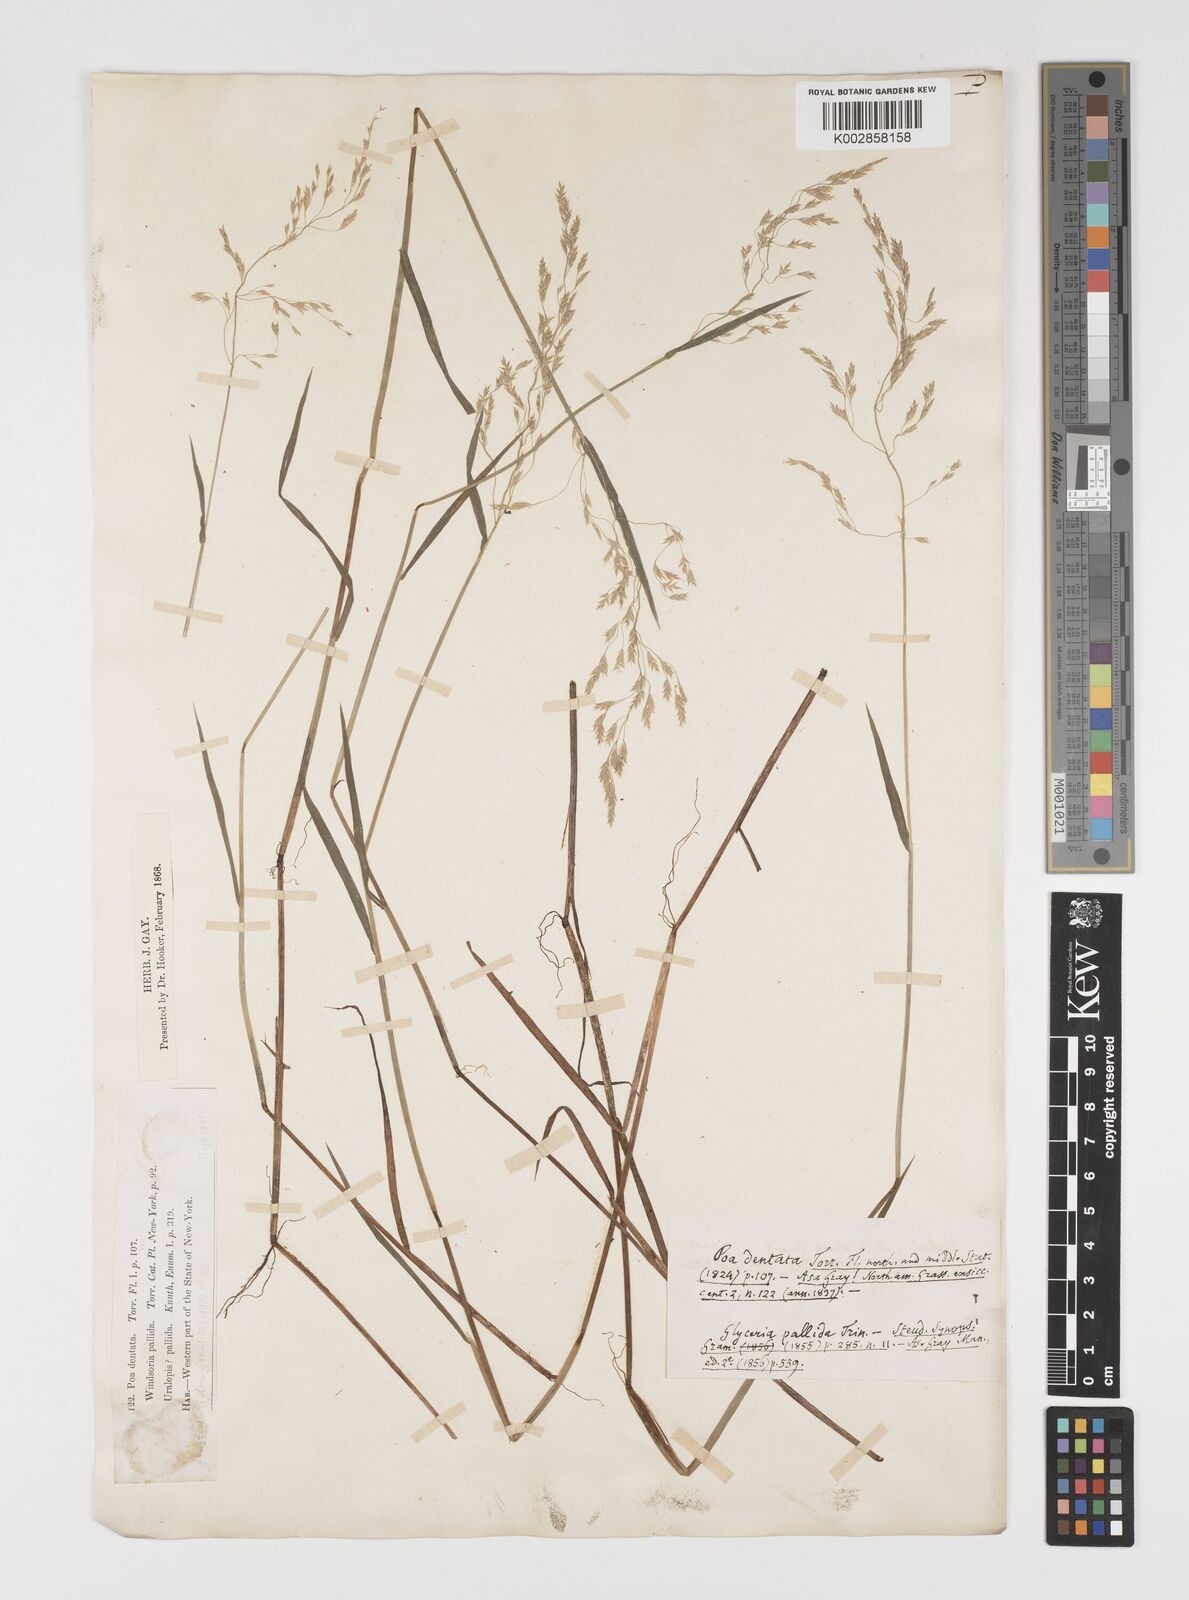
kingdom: Plantae
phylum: Tracheophyta
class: Liliopsida
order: Poales
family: Poaceae
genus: Torreyochloa
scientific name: Torreyochloa pallida
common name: Pale false mannagrass
